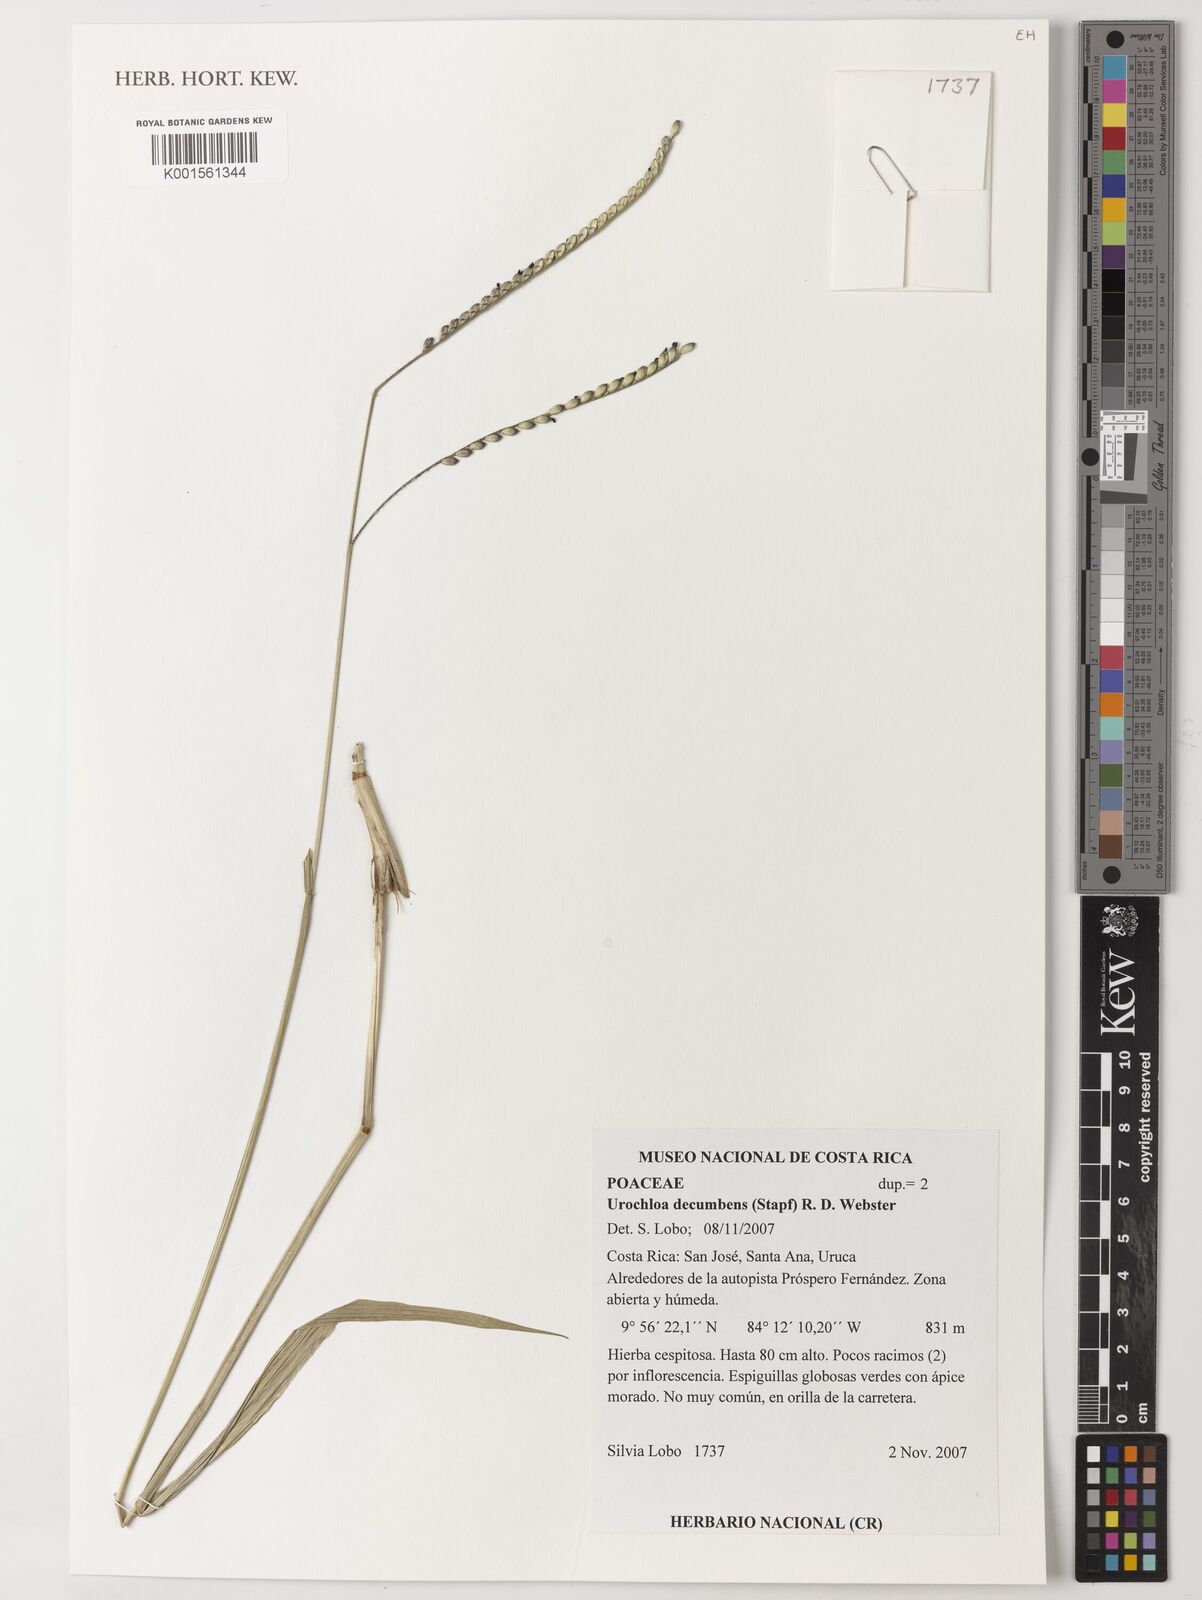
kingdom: Plantae
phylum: Tracheophyta
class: Liliopsida
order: Poales
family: Poaceae
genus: Urochloa
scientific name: Urochloa eminii
